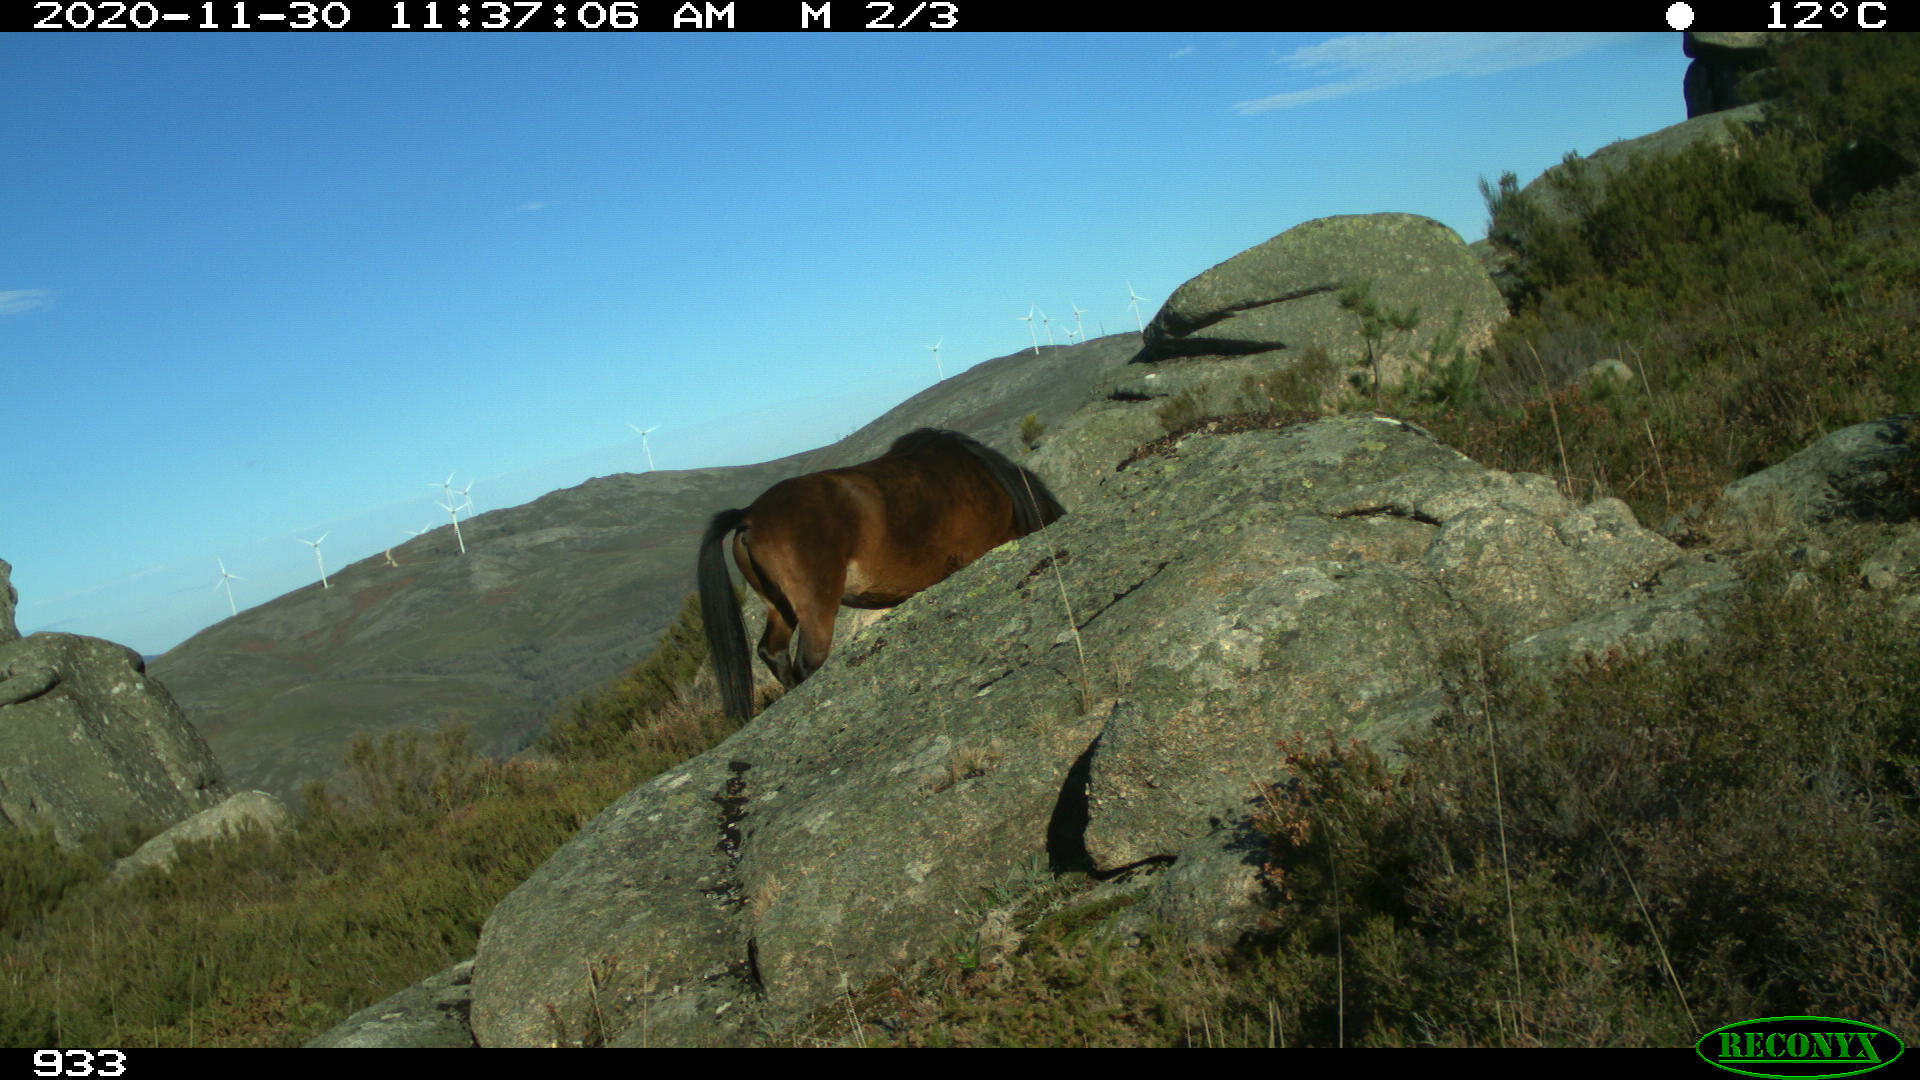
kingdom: Animalia
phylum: Chordata
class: Mammalia
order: Perissodactyla
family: Equidae
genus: Equus
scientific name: Equus caballus
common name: Horse
